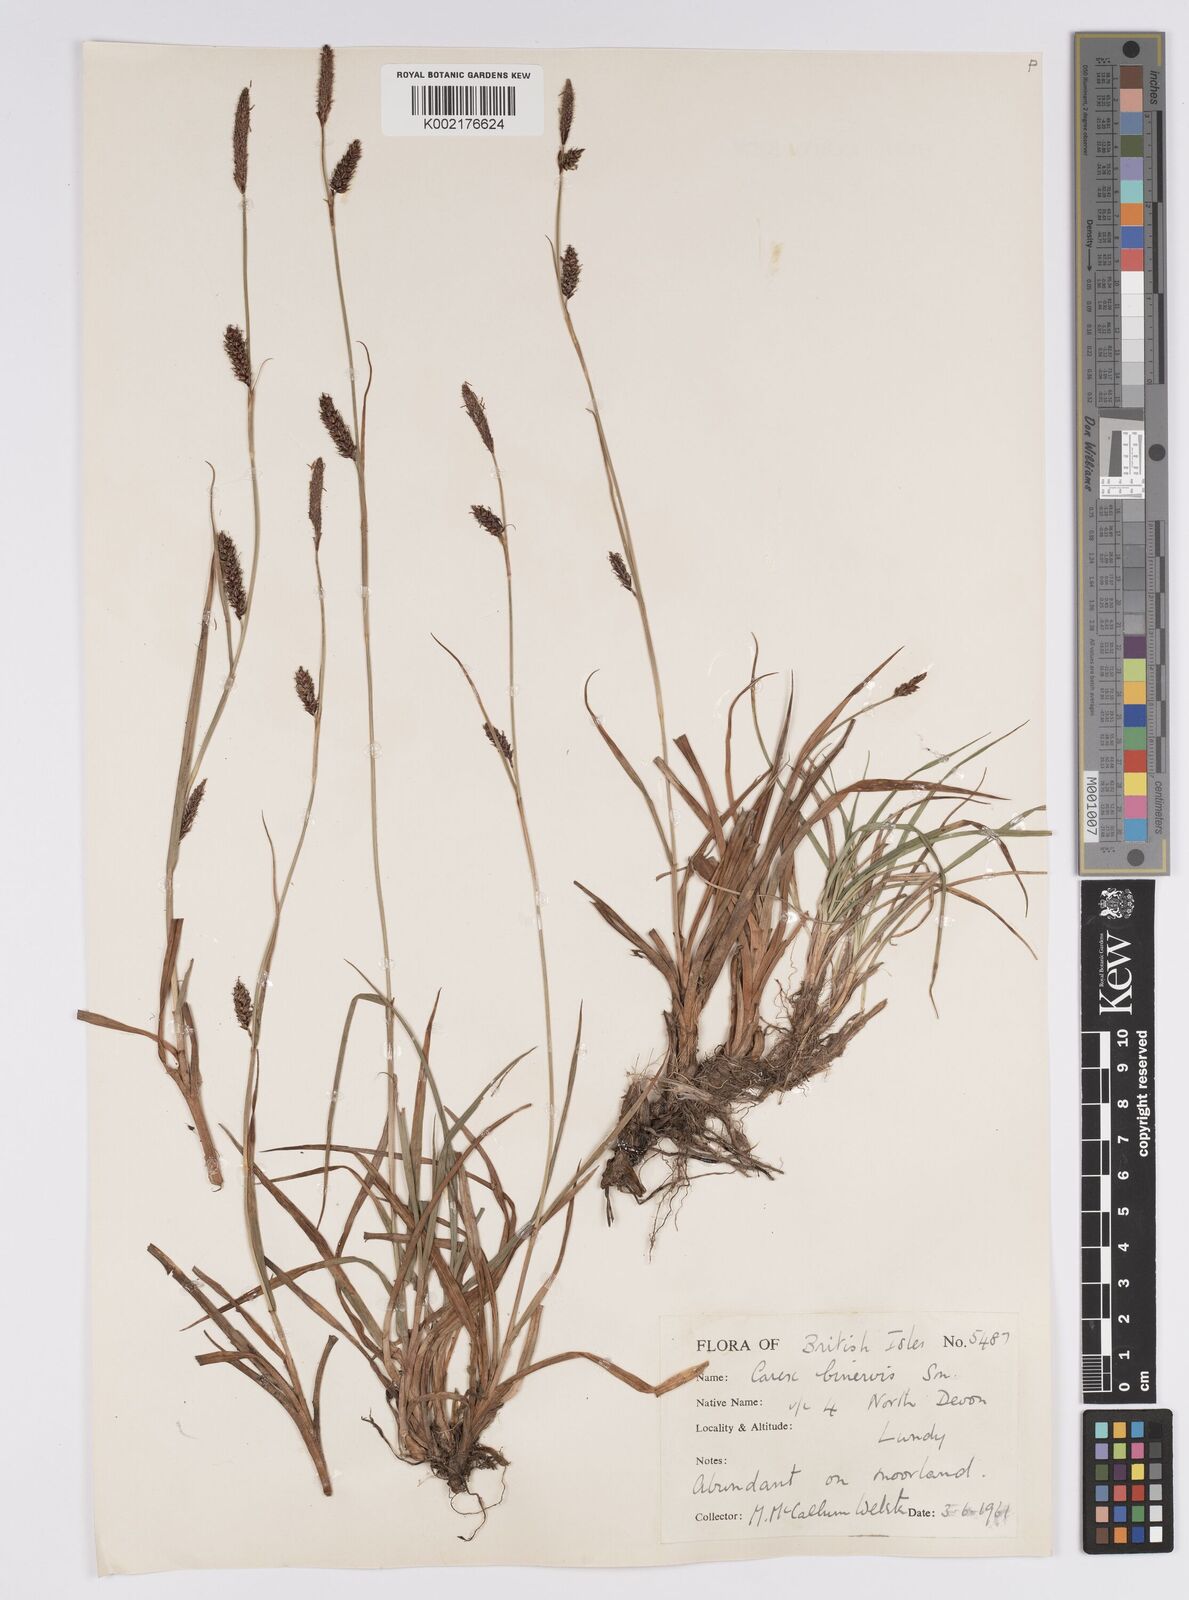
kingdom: Plantae
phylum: Tracheophyta
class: Liliopsida
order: Poales
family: Cyperaceae
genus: Carex
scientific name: Carex binervis
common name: Green-ribbed sedge
